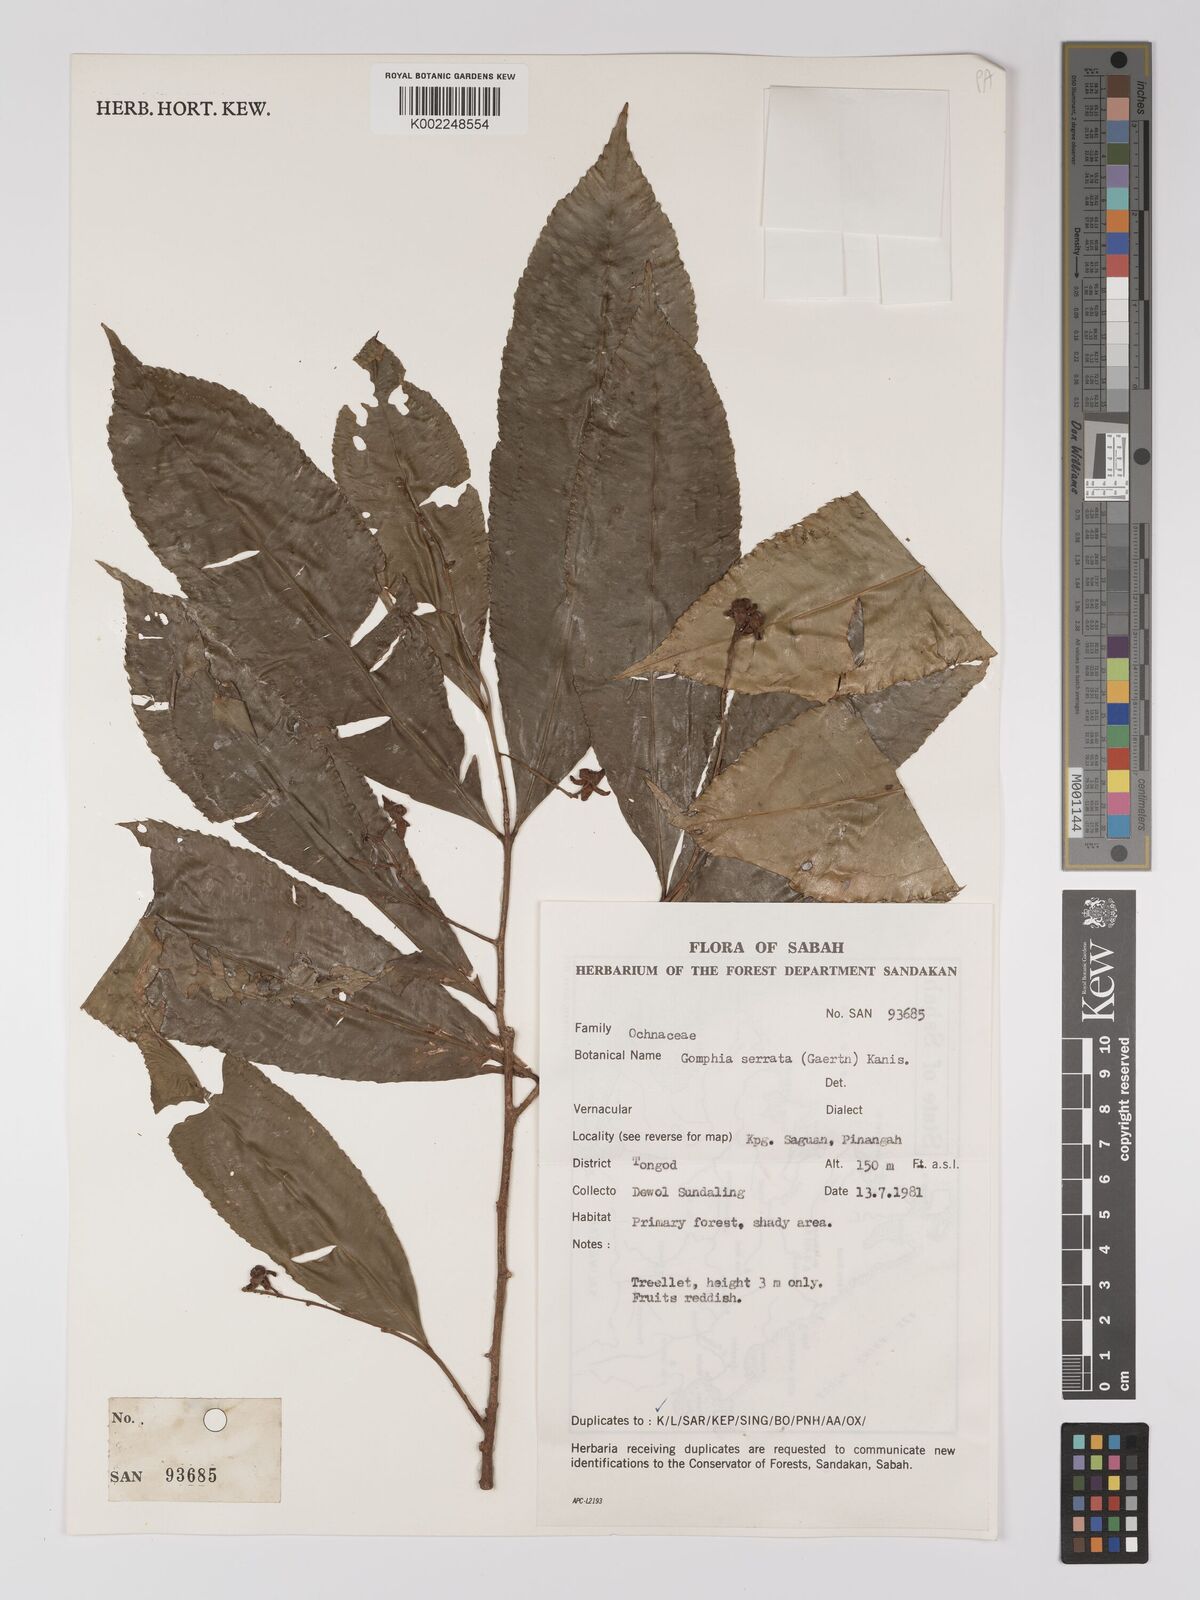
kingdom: Plantae
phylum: Tracheophyta
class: Magnoliopsida
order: Malpighiales
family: Ochnaceae
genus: Gomphia
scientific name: Gomphia serrata
